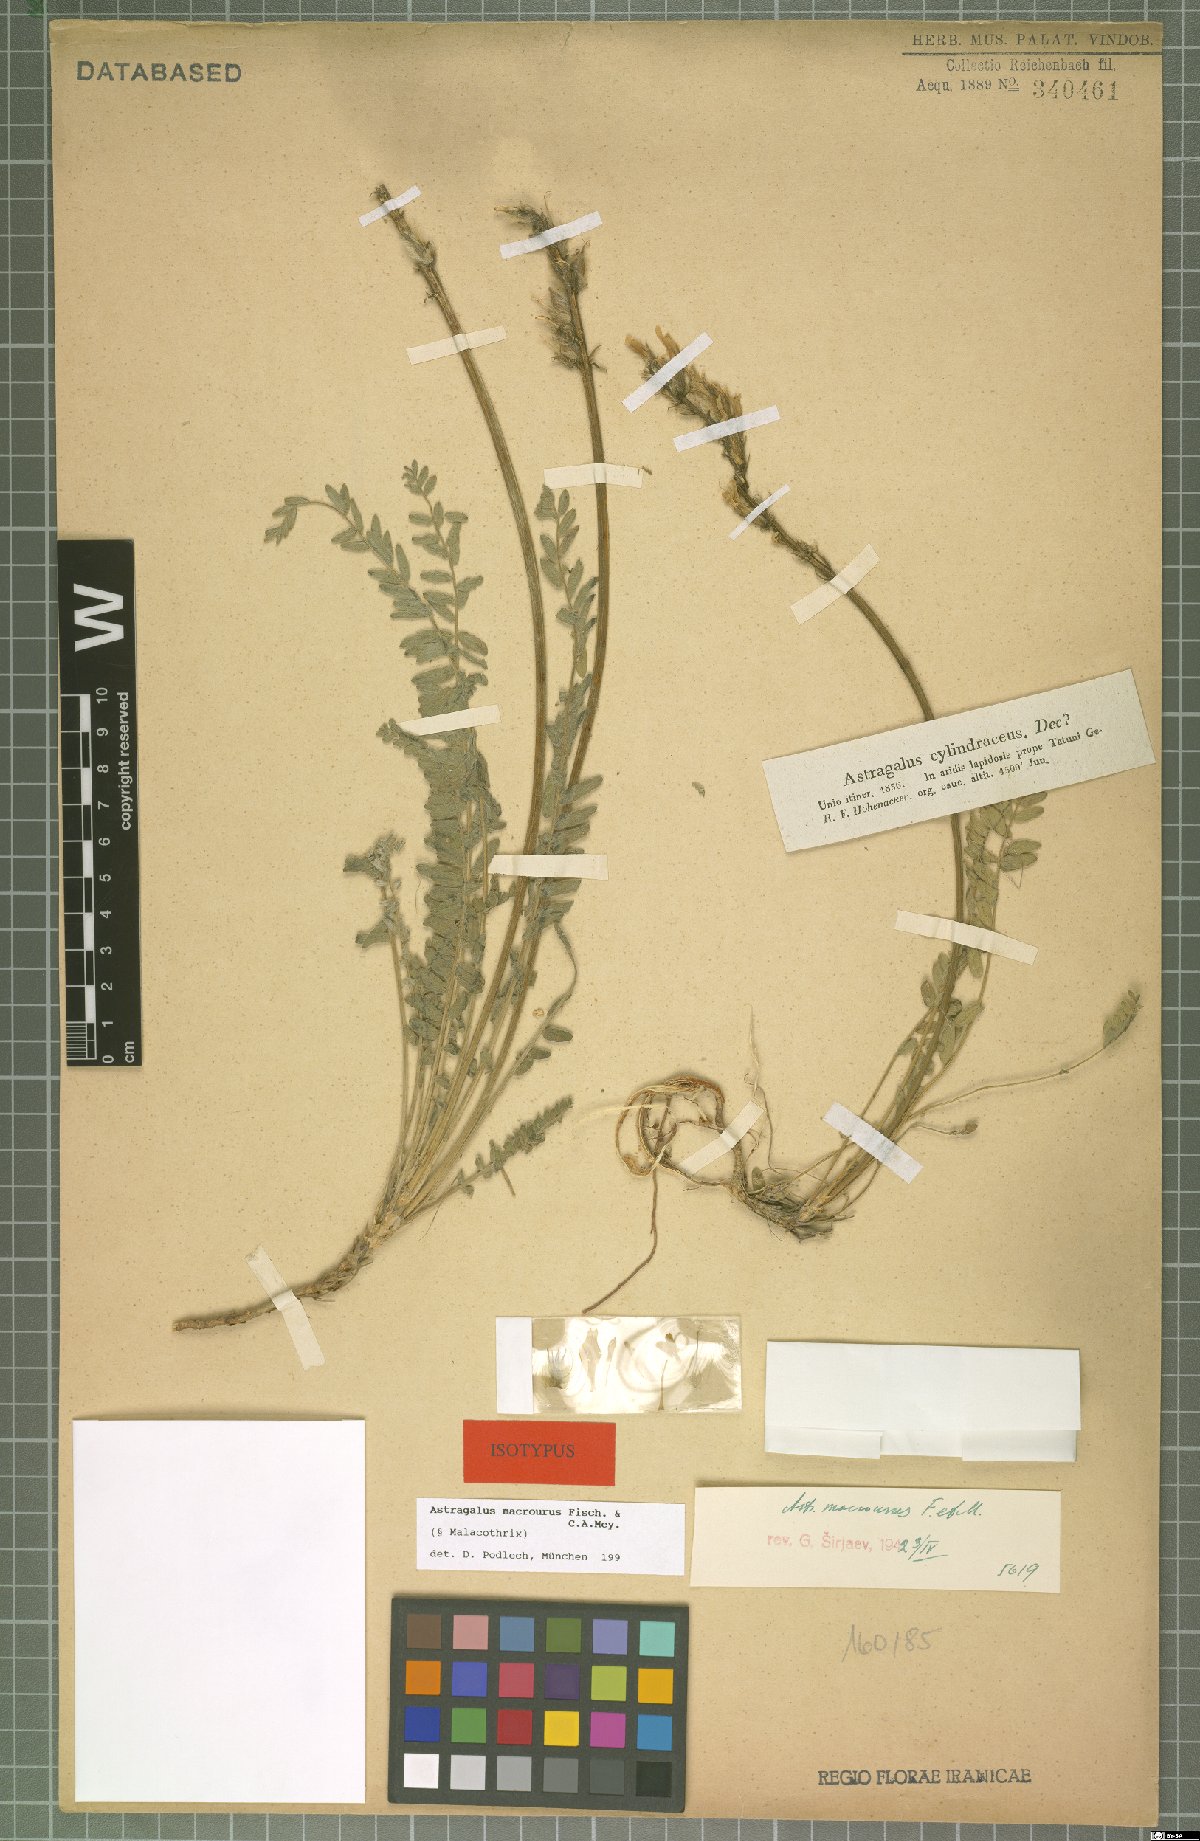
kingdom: Plantae
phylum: Tracheophyta
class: Magnoliopsida
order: Fabales
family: Fabaceae
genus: Astragalus
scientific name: Astragalus macrourus
